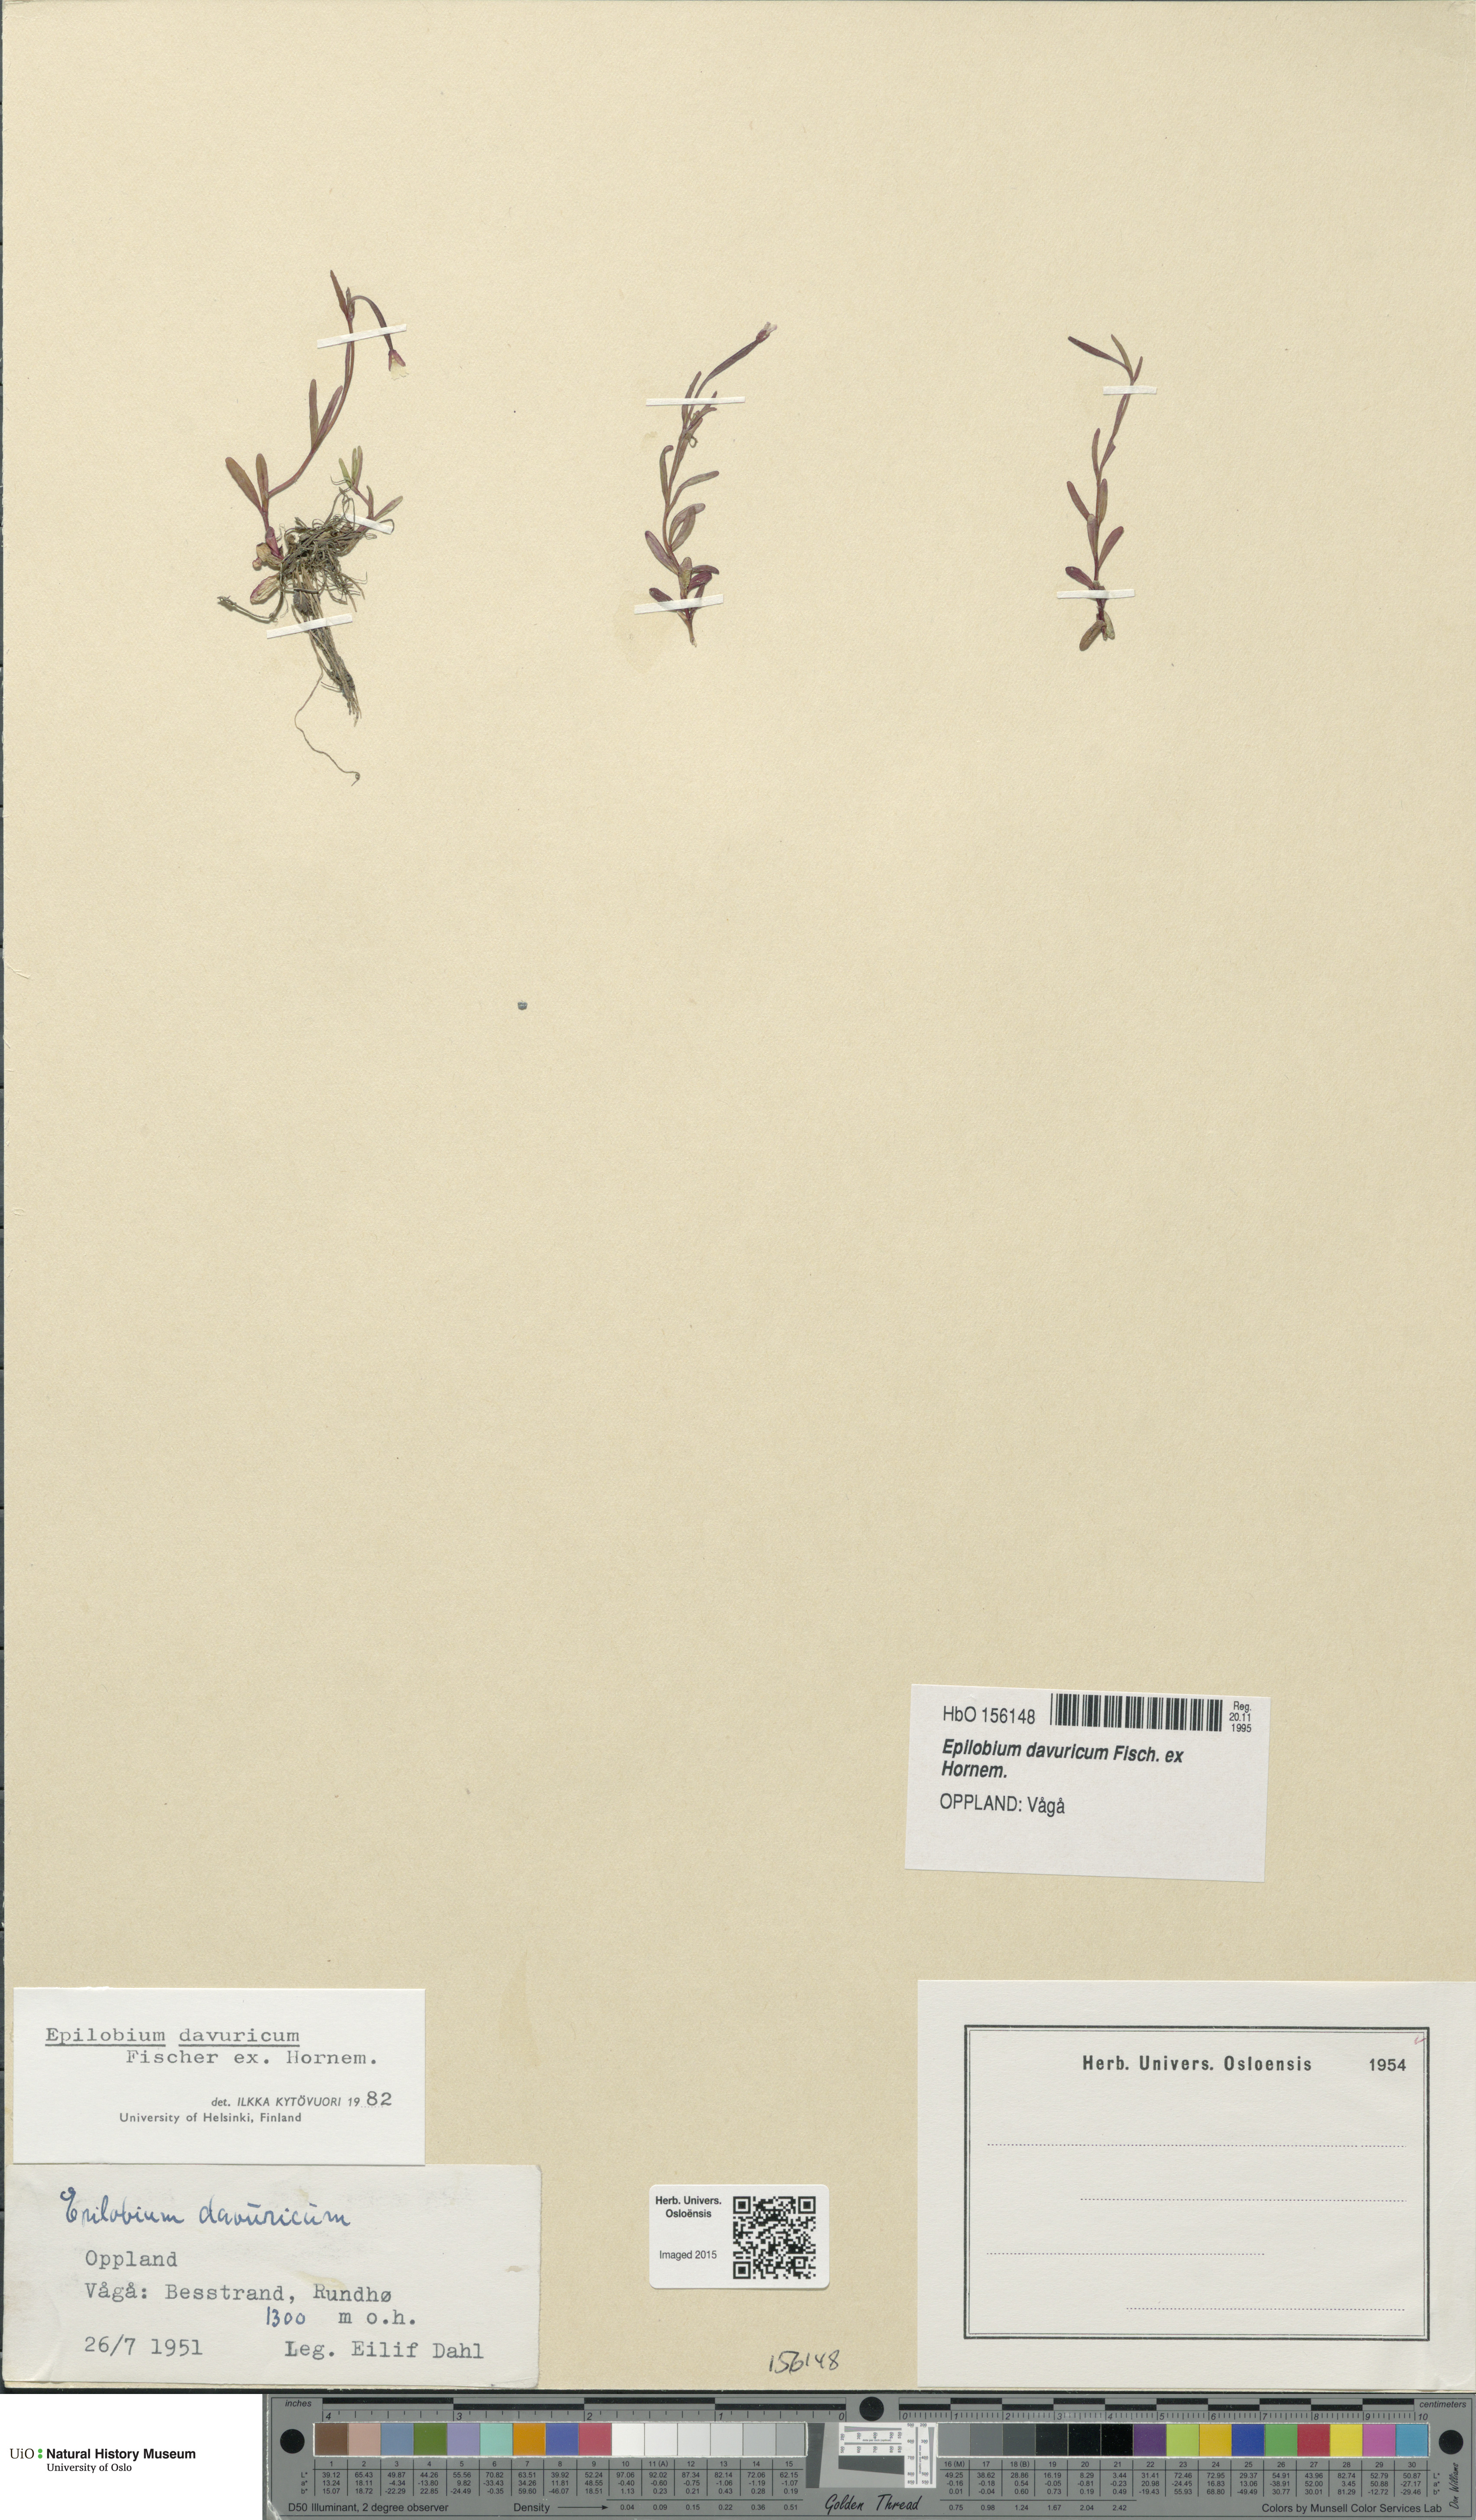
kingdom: Plantae
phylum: Tracheophyta
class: Magnoliopsida
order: Myrtales
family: Onagraceae
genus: Epilobium
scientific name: Epilobium davuricum
